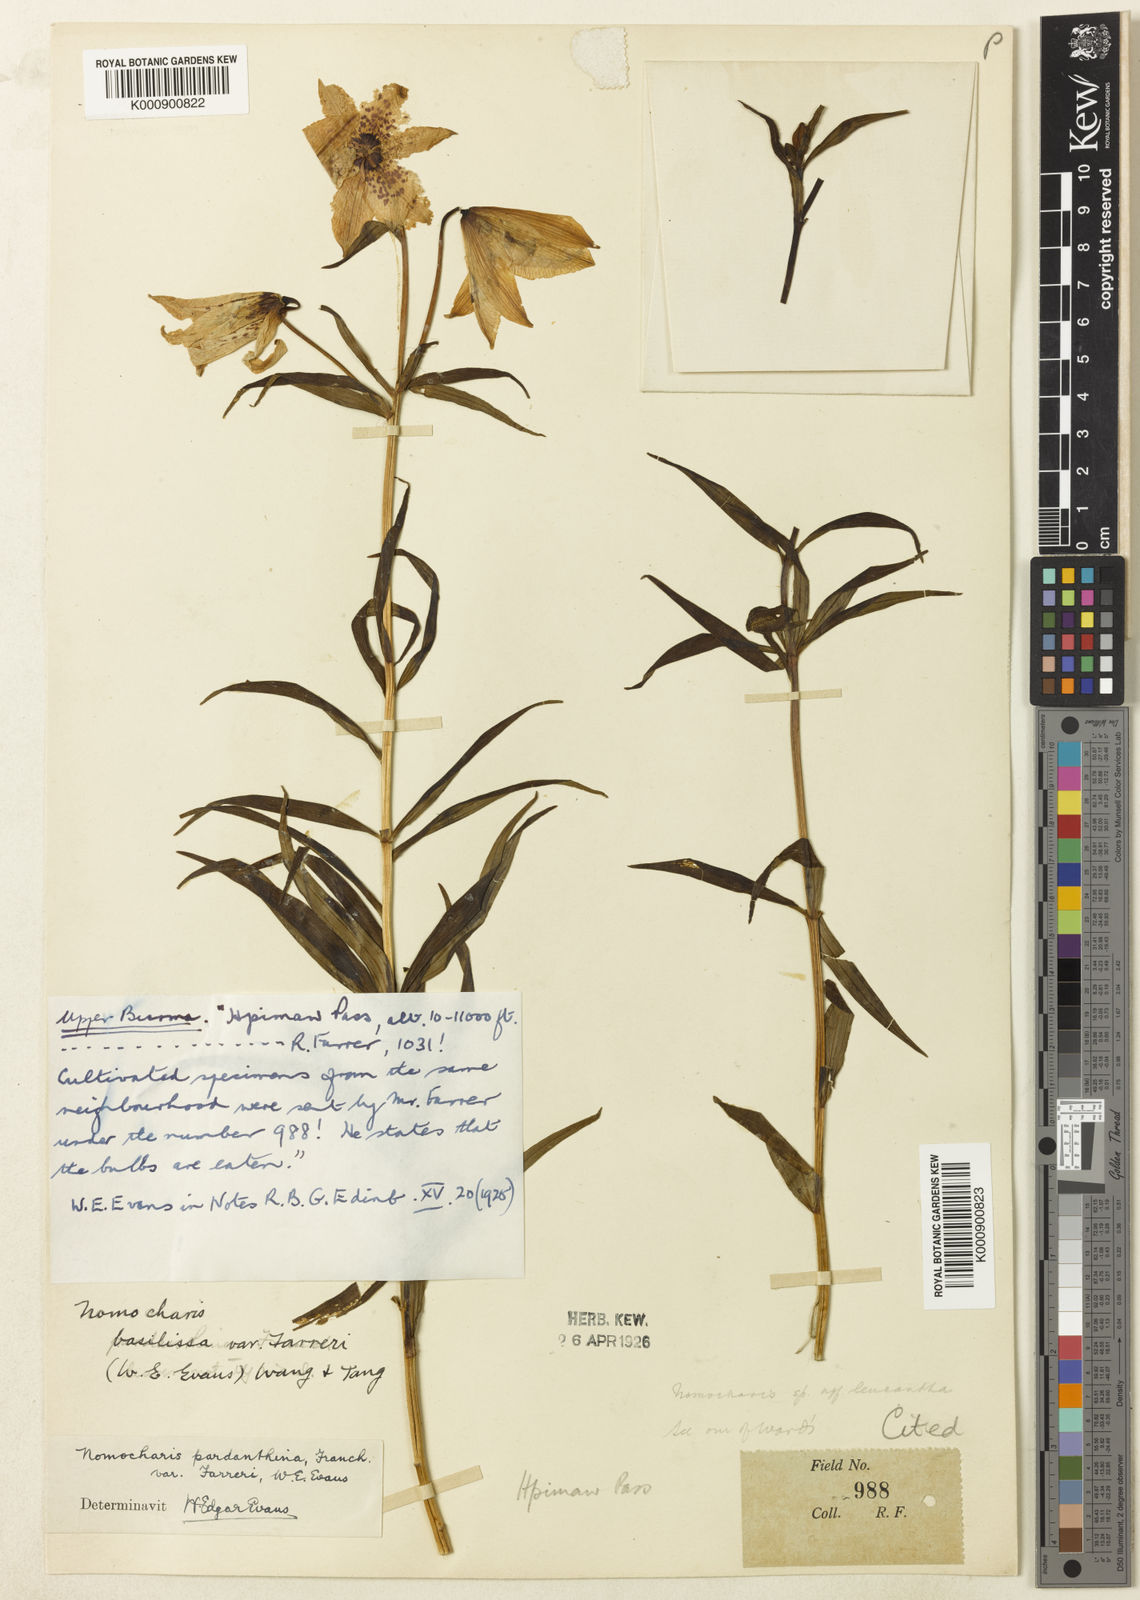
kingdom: Plantae
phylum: Tracheophyta
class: Liliopsida
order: Liliales
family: Liliaceae
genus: Lilium
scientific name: Lilium
